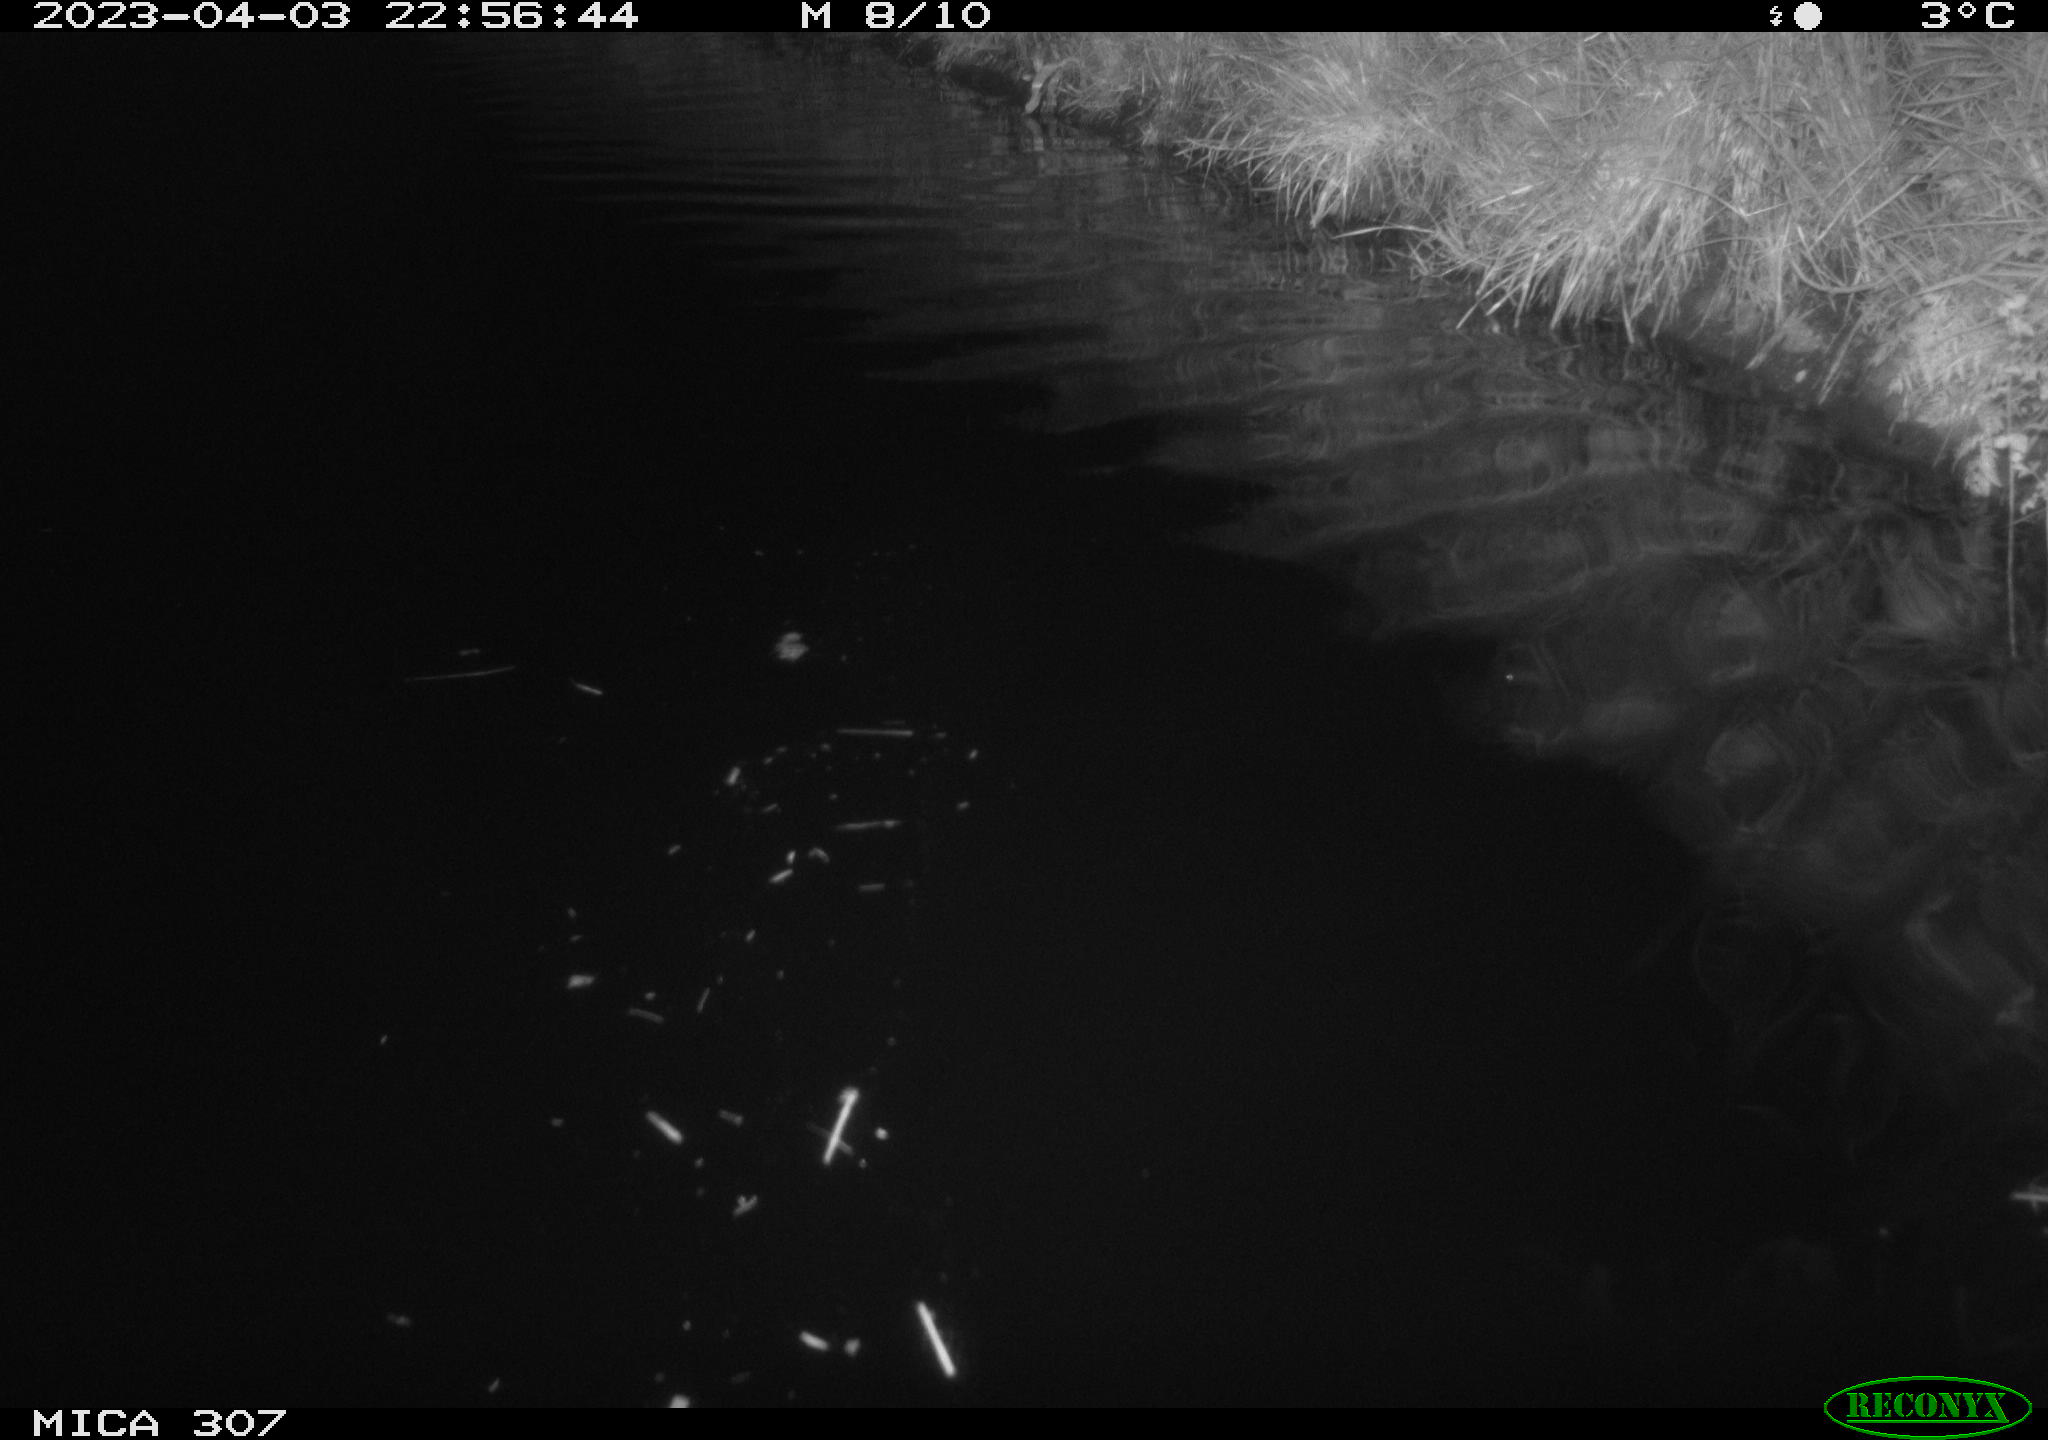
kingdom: Animalia
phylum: Chordata
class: Aves
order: Anseriformes
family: Anatidae
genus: Anas
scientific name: Anas
